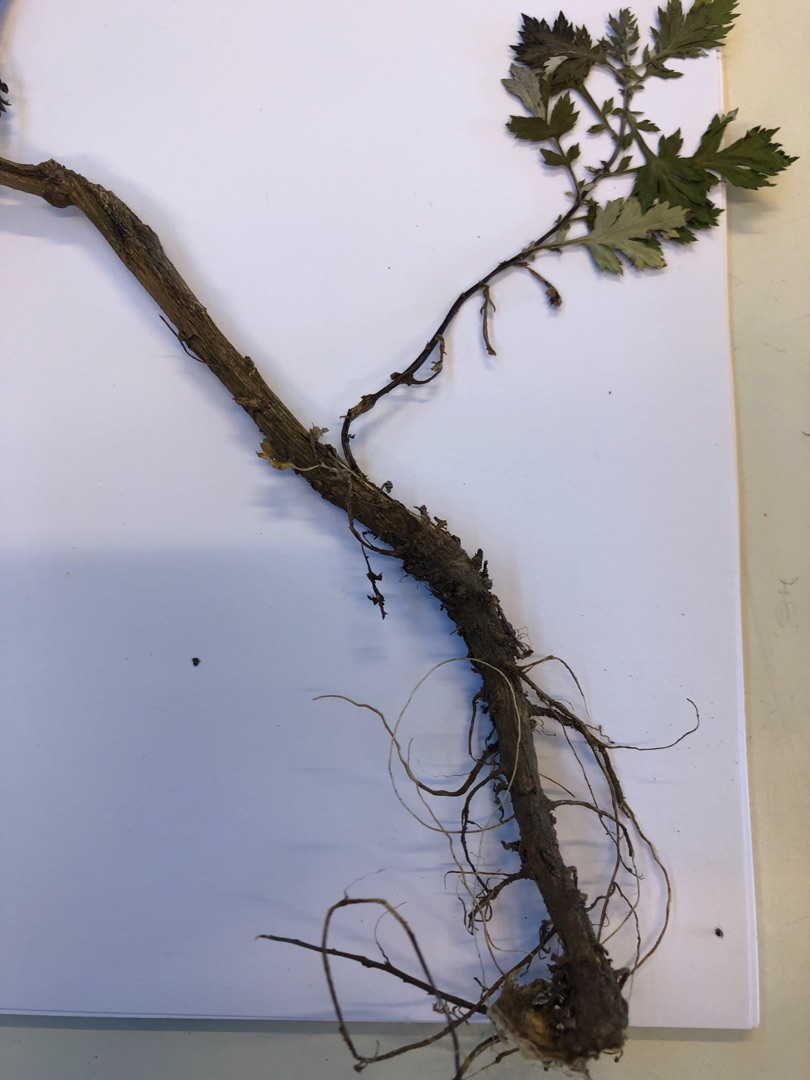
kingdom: Plantae
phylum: Tracheophyta
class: Magnoliopsida
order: Asterales
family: Asteraceae
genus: Artemisia
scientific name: Artemisia vulgaris
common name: Grå-bynke
